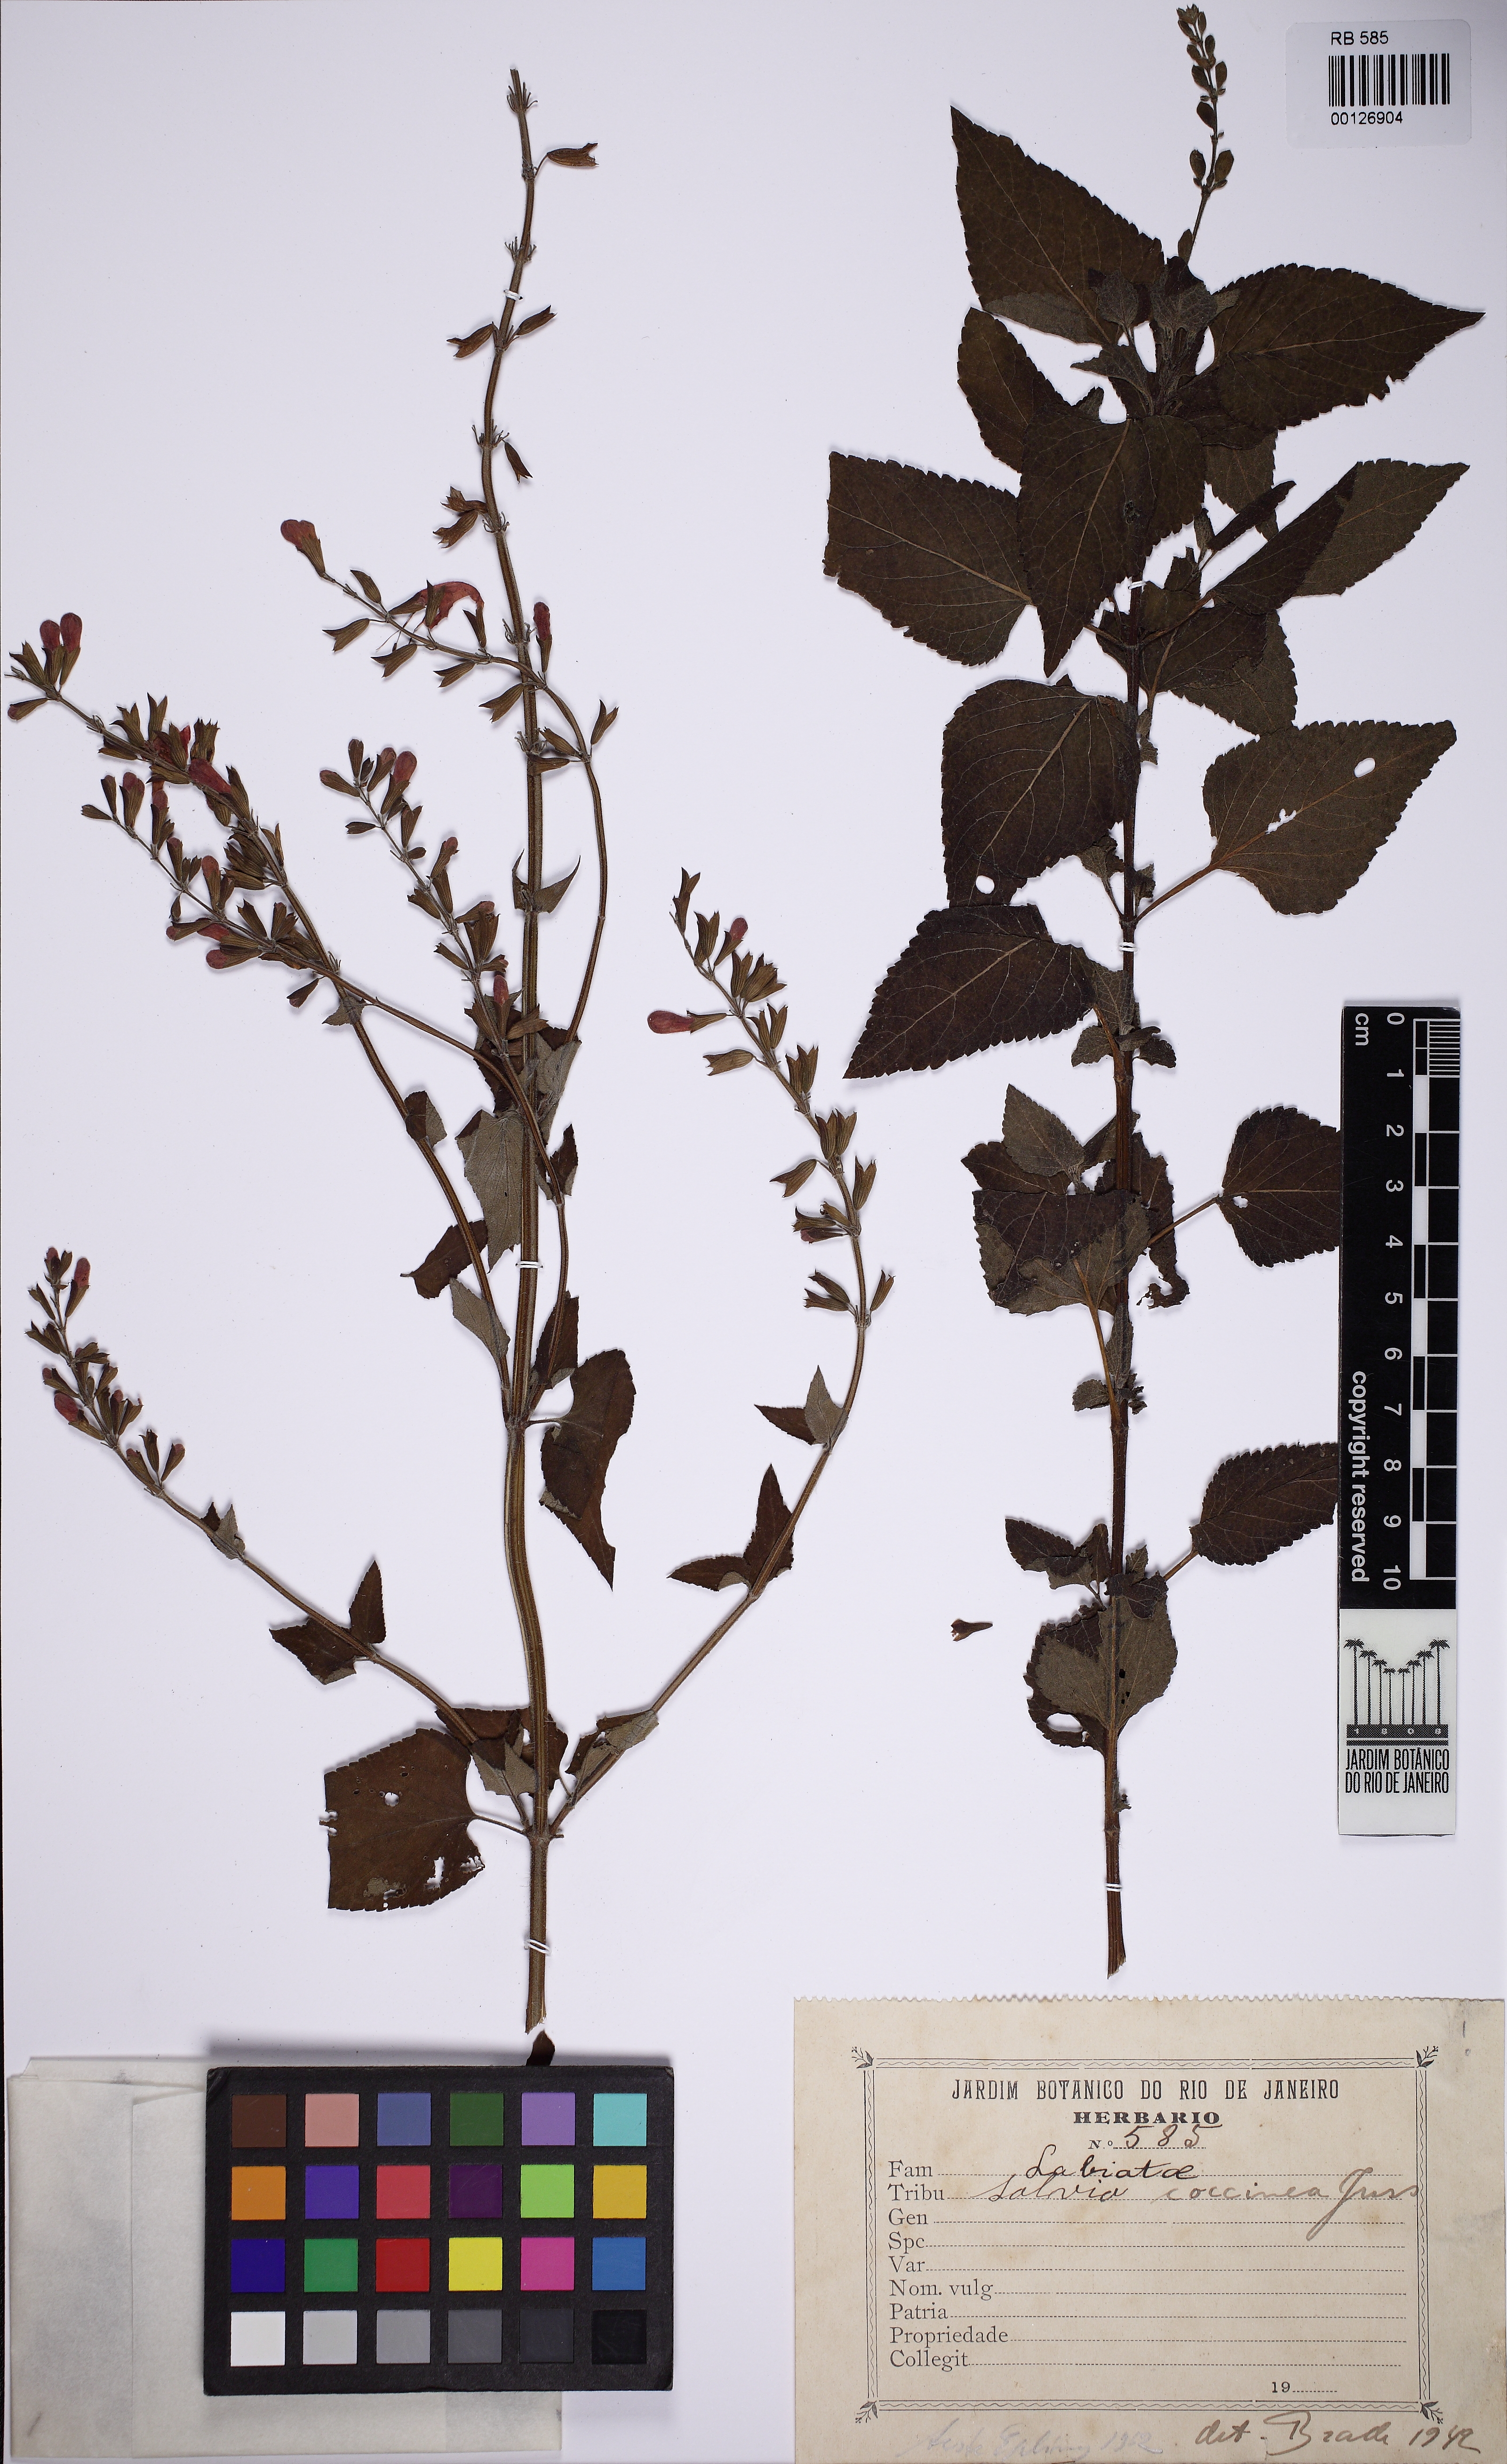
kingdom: Plantae
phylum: Tracheophyta
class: Magnoliopsida
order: Lamiales
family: Lamiaceae
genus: Salvia
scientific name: Salvia coccinea
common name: Blood sage
